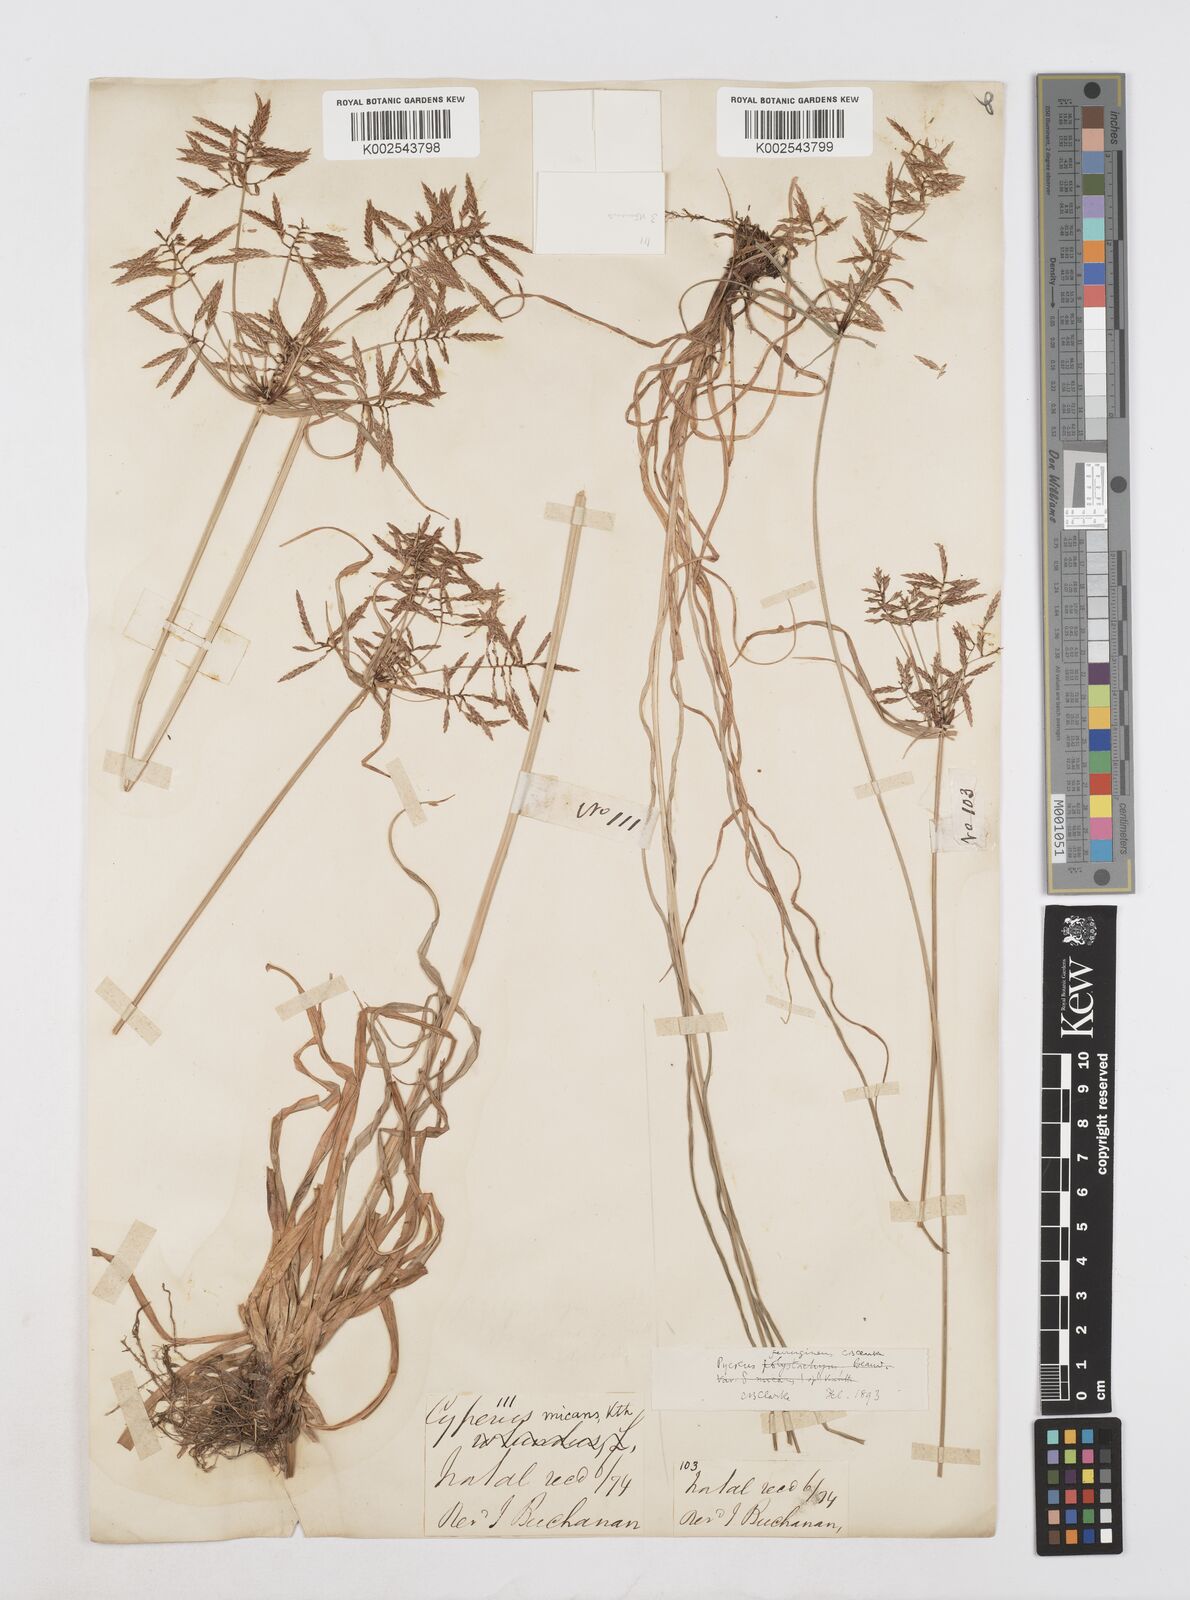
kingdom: Plantae
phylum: Tracheophyta
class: Liliopsida
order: Poales
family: Cyperaceae
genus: Cyperus
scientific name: Cyperus intactus
